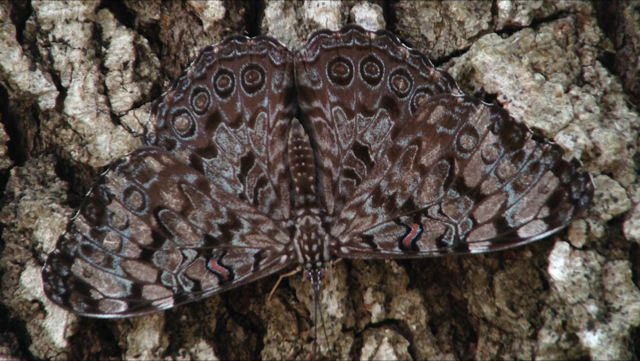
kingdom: Animalia
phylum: Arthropoda
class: Insecta
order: Lepidoptera
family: Nymphalidae
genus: Hamadryas
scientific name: Hamadryas guatemalena
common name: Guatemalan Cracker
